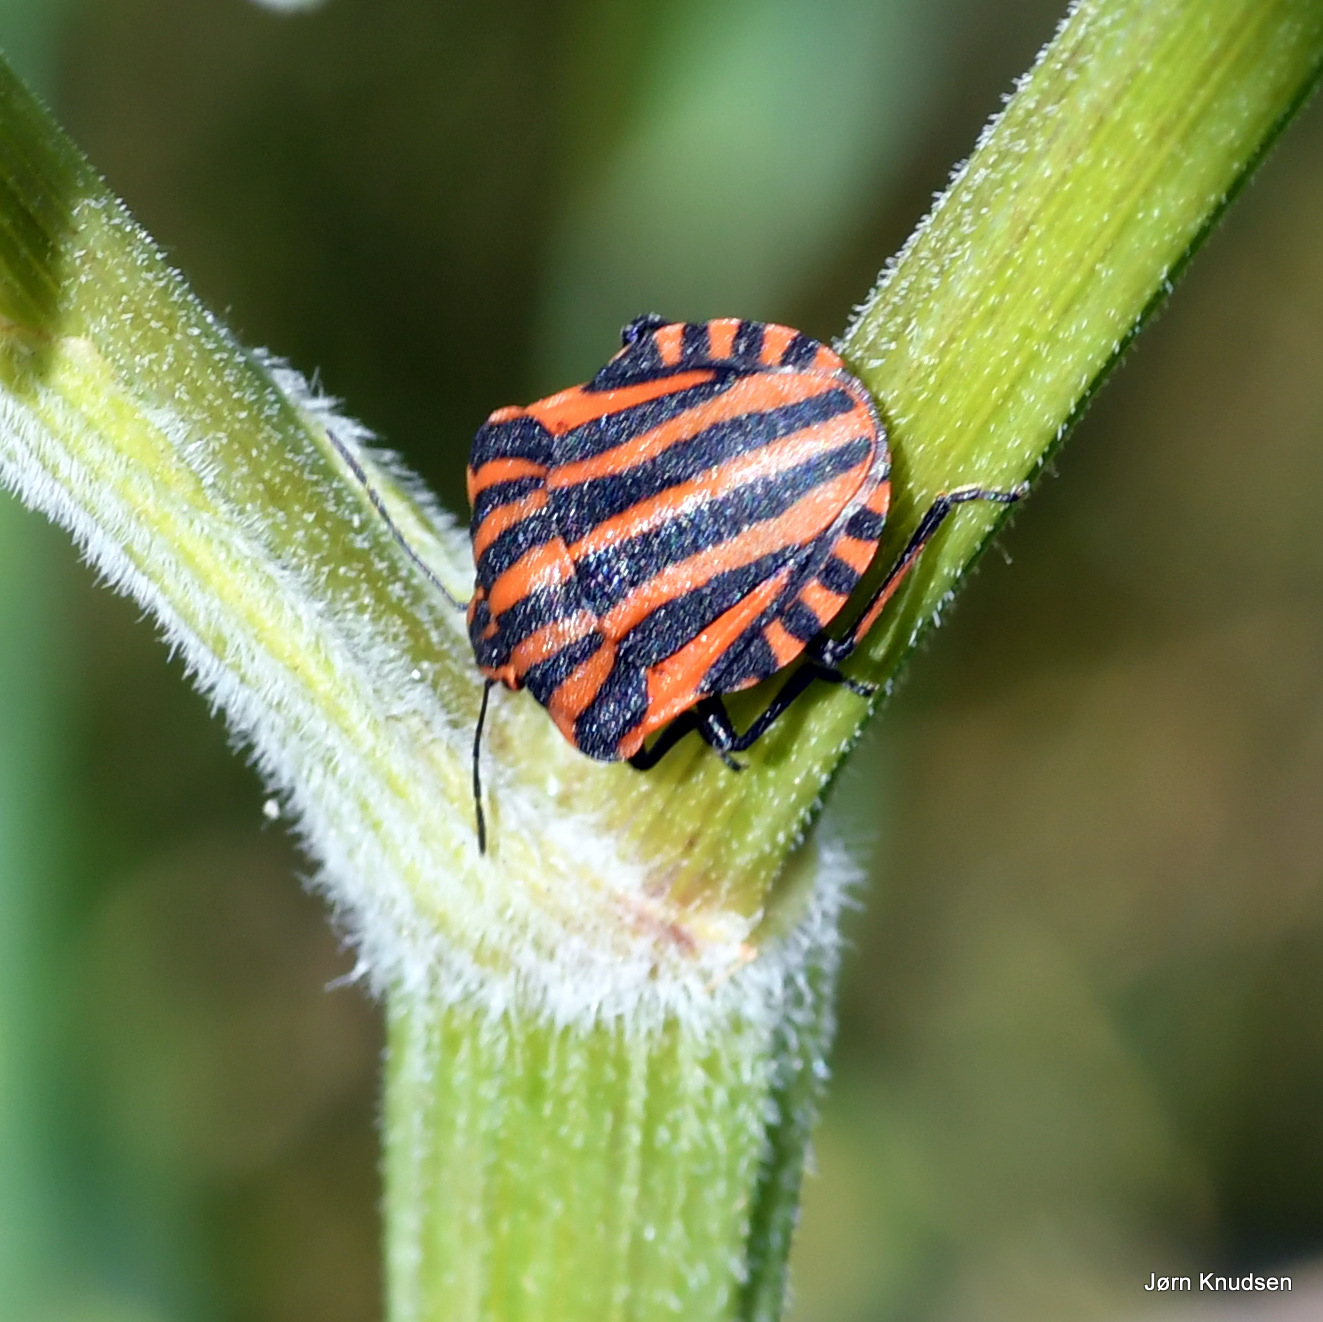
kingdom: Animalia
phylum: Arthropoda
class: Insecta
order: Hemiptera
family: Pentatomidae
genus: Graphosoma
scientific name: Graphosoma italicum
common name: Stribetæge
